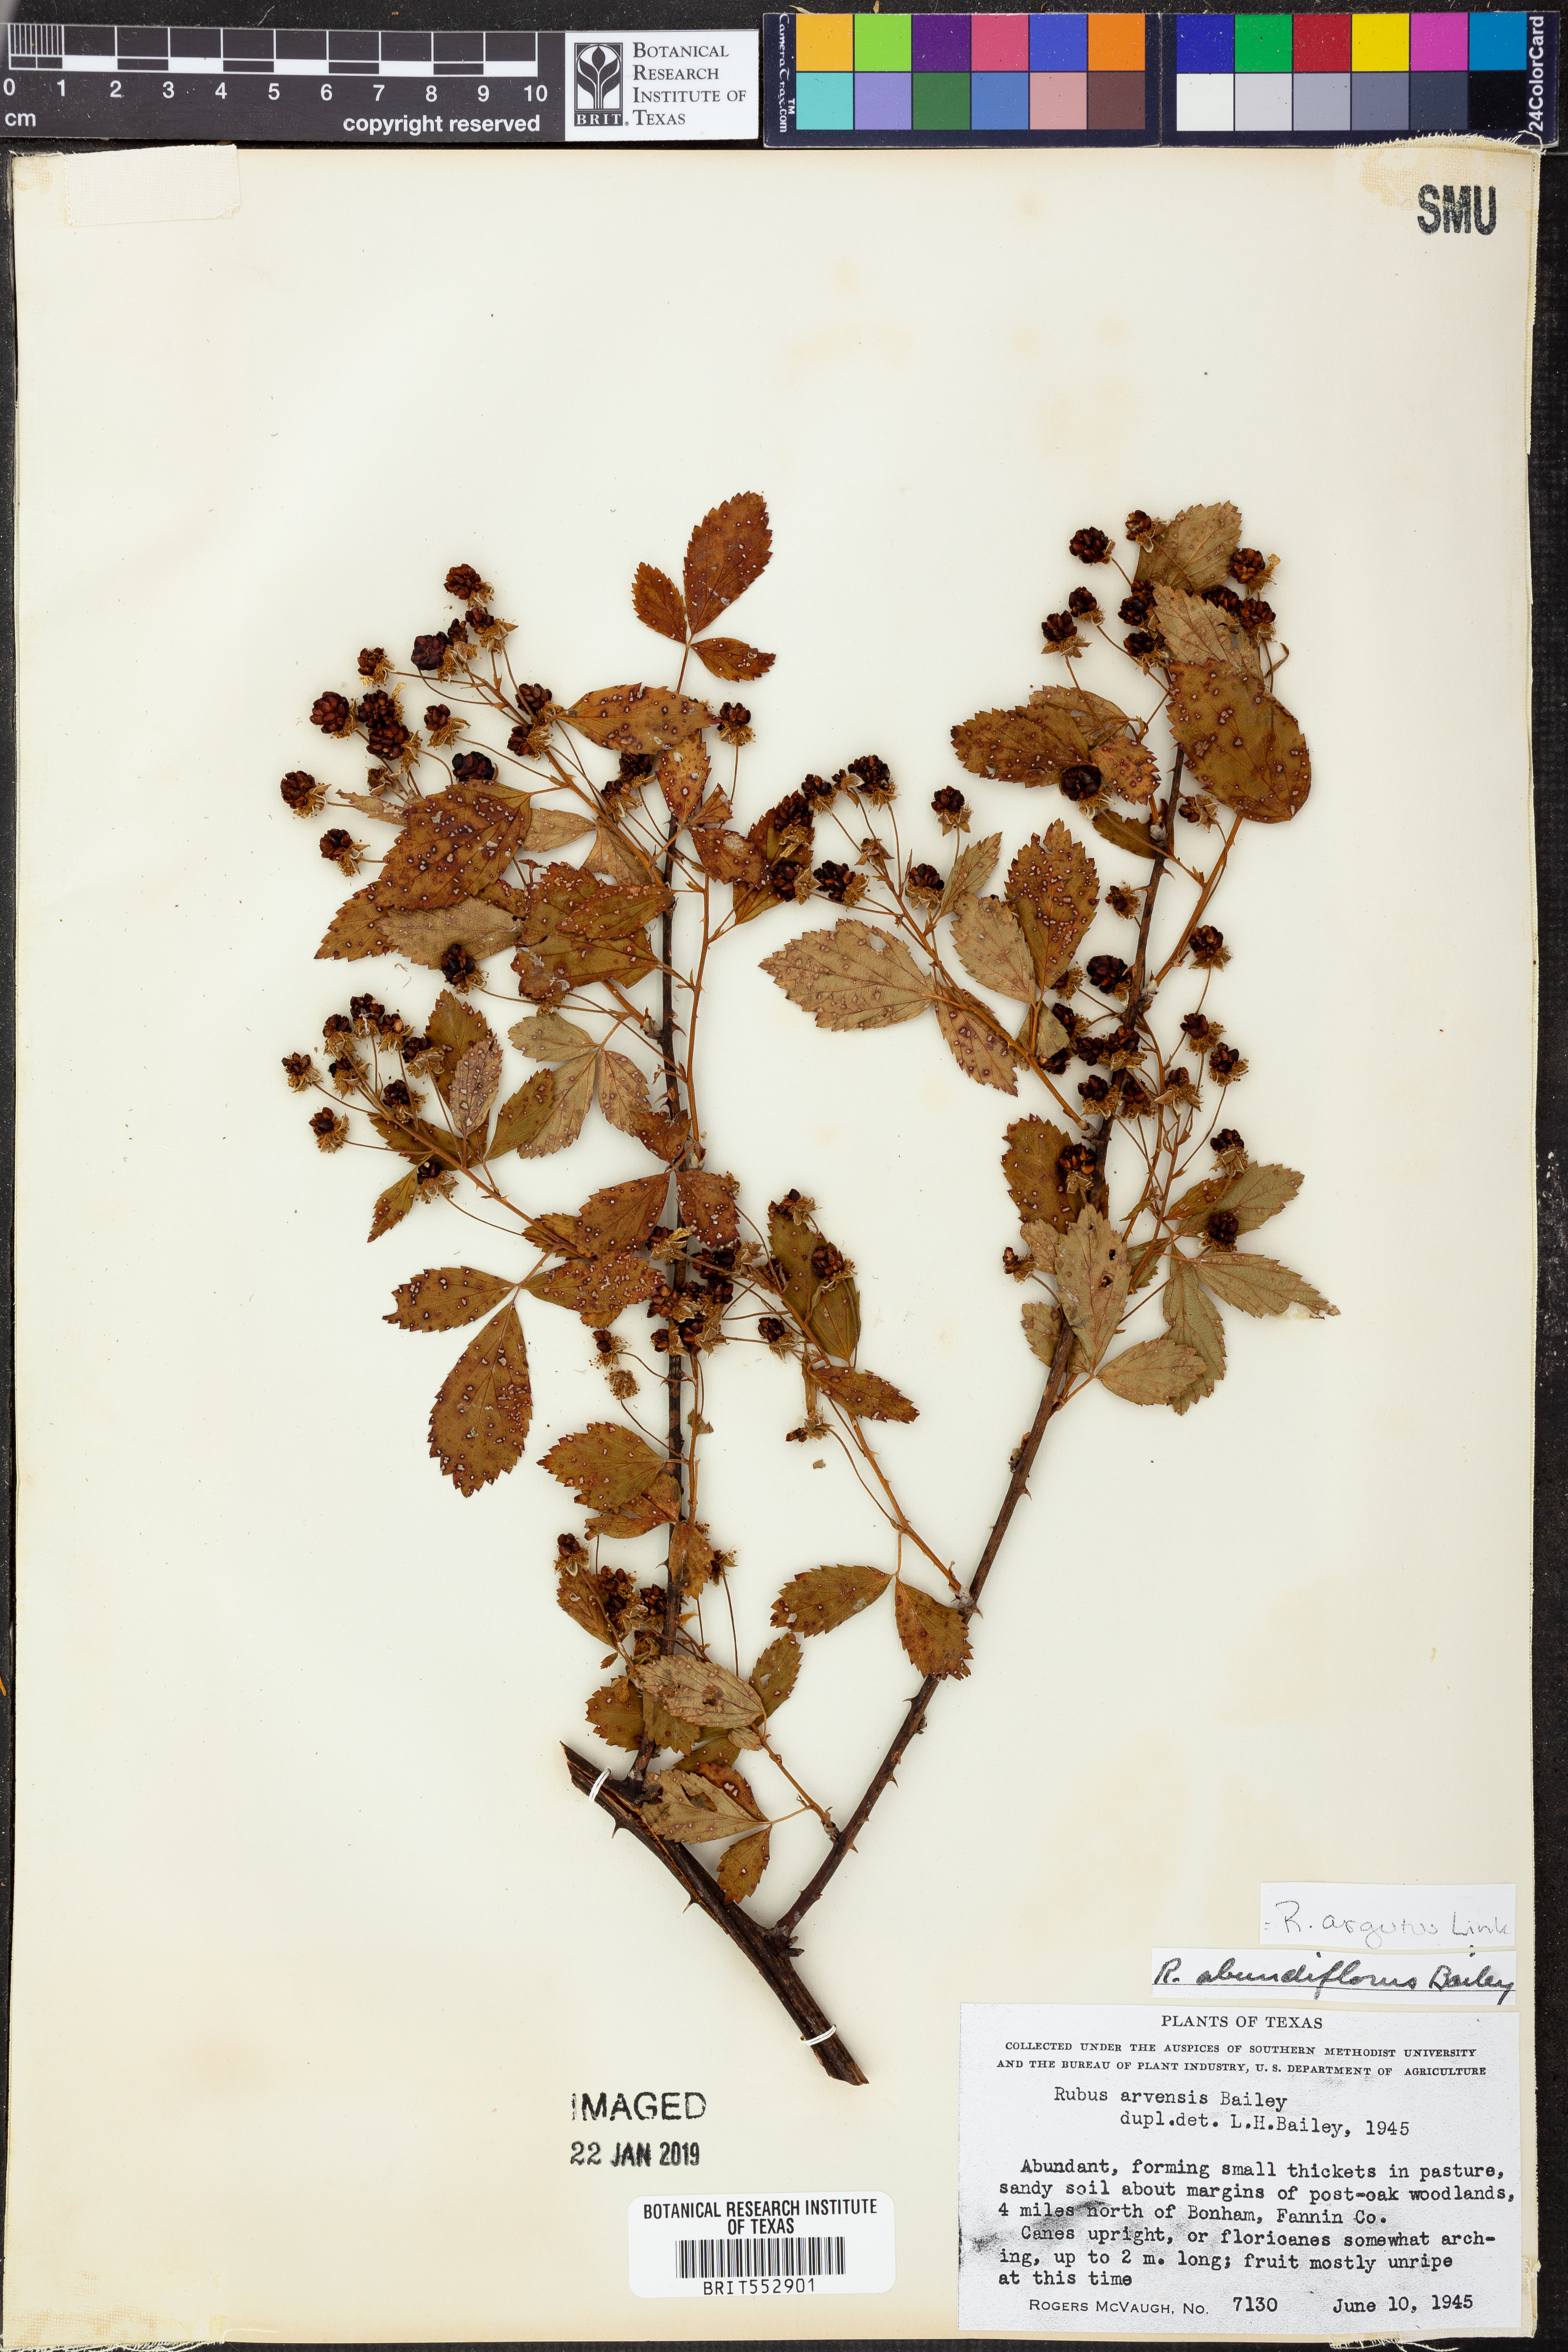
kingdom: Plantae
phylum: Tracheophyta
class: Magnoliopsida
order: Rosales
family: Rosaceae
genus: Rubus
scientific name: Rubus argutus
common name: Sawtooth blackberry
